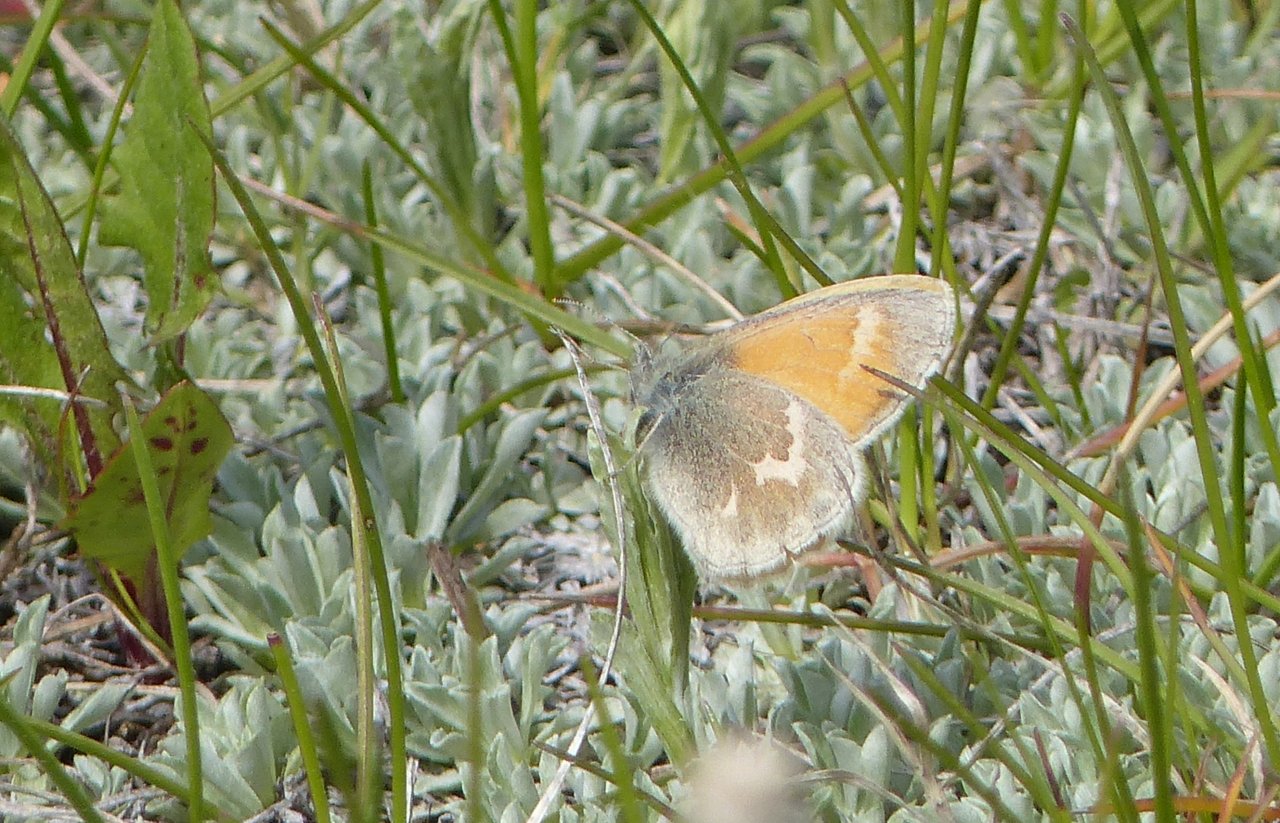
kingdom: Animalia
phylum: Arthropoda
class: Insecta
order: Lepidoptera
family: Nymphalidae
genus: Coenonympha
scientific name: Coenonympha tullia
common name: Large Heath
